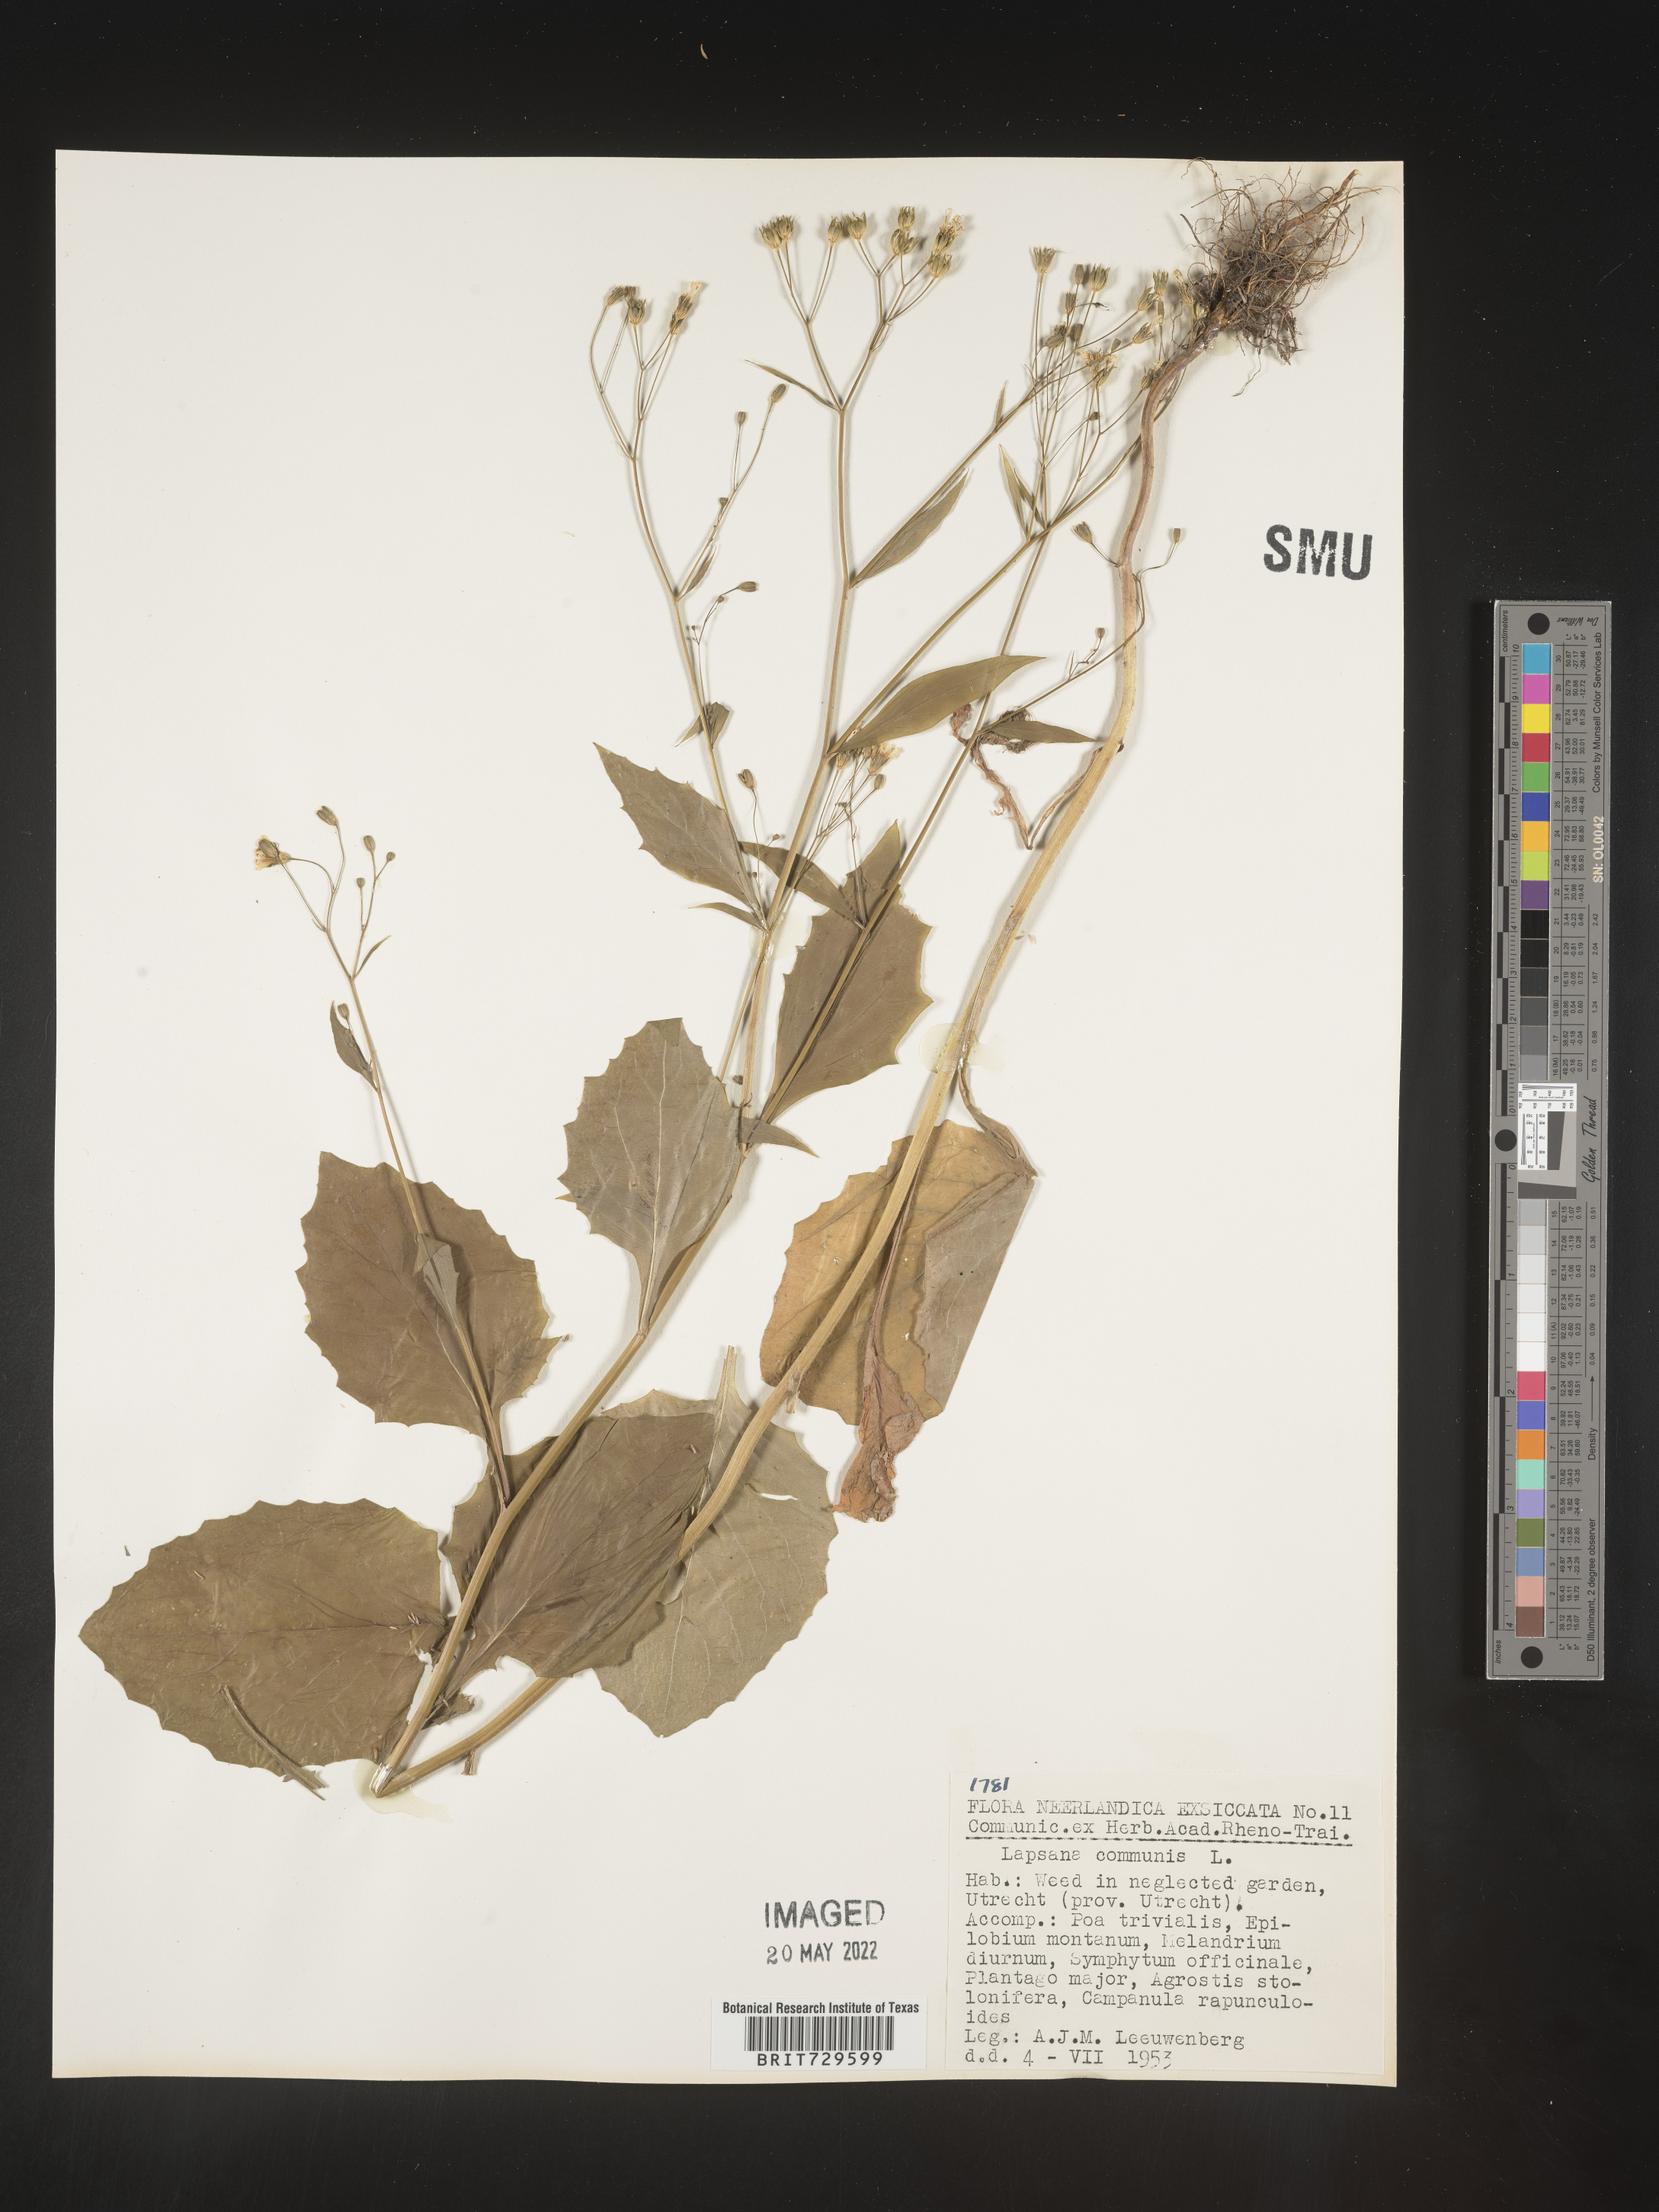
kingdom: Plantae
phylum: Tracheophyta
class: Magnoliopsida
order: Asterales
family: Asteraceae
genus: Lapsana
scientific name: Lapsana
